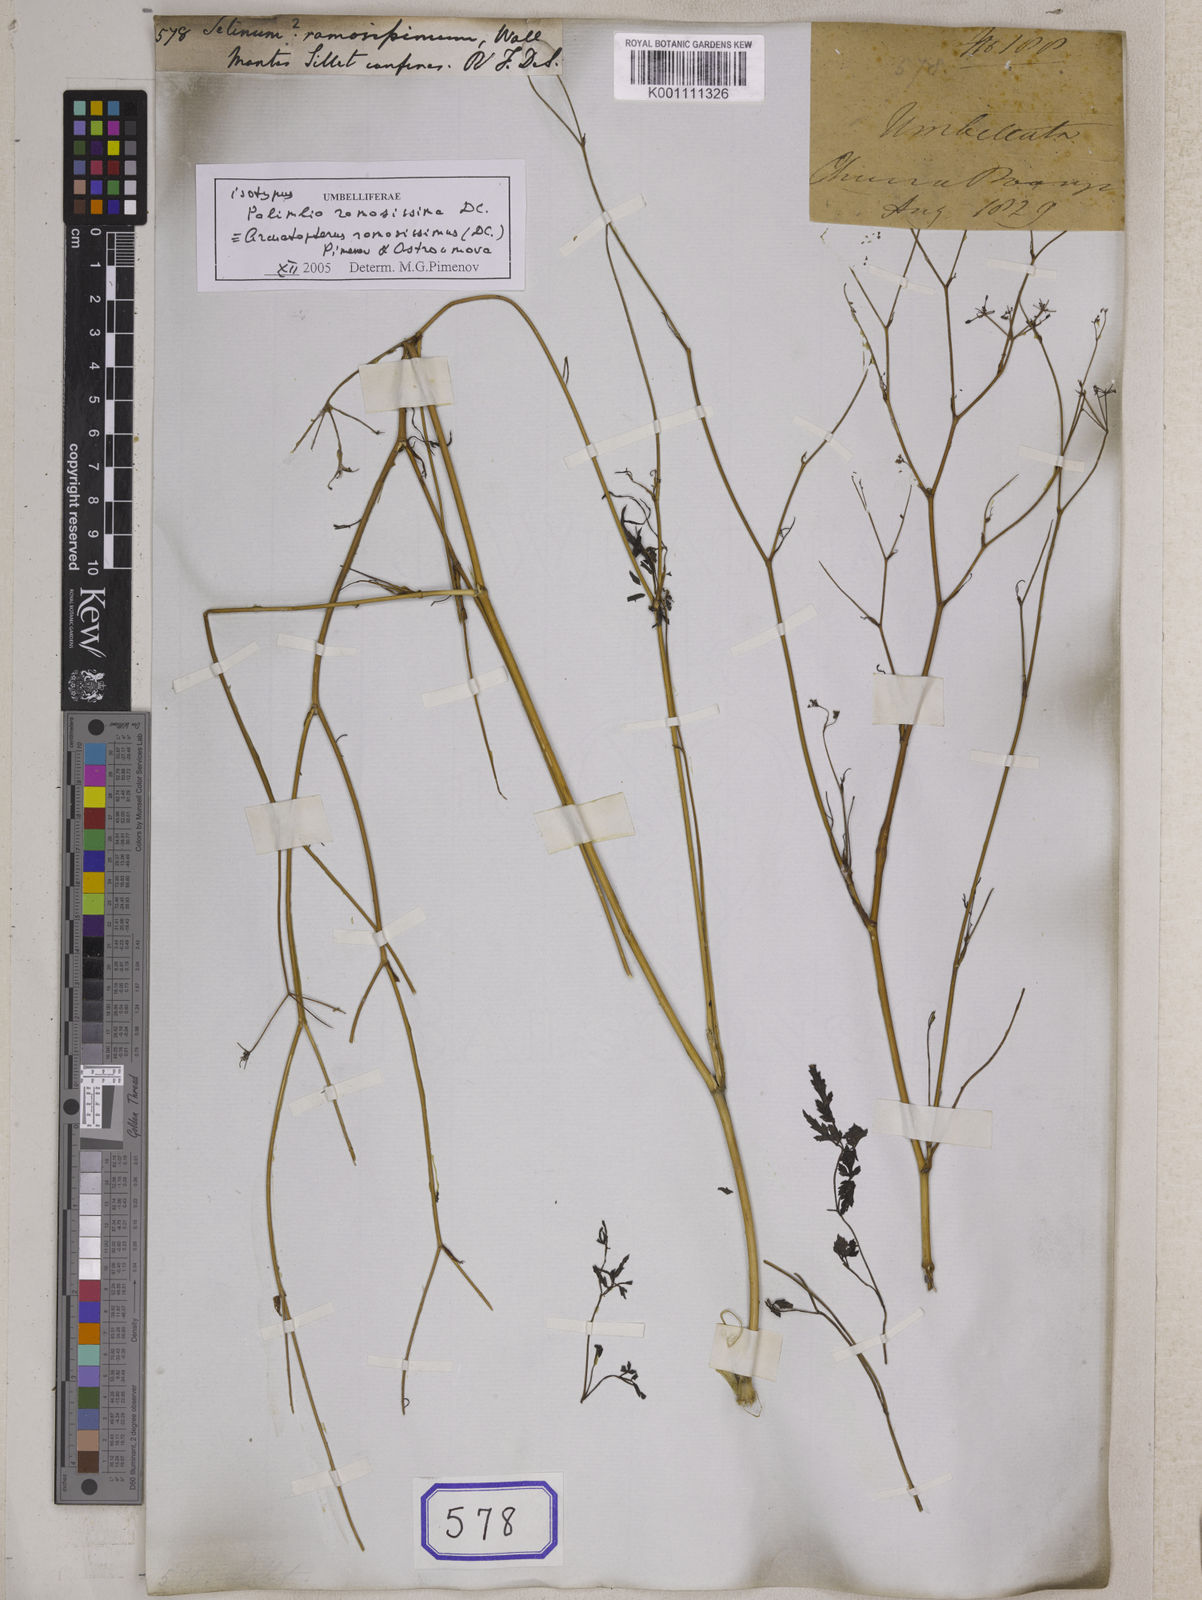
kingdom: Plantae
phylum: Tracheophyta
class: Magnoliopsida
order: Apiales
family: Apiaceae
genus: Arcuatopterus
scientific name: Arcuatopterus ramosissimus
